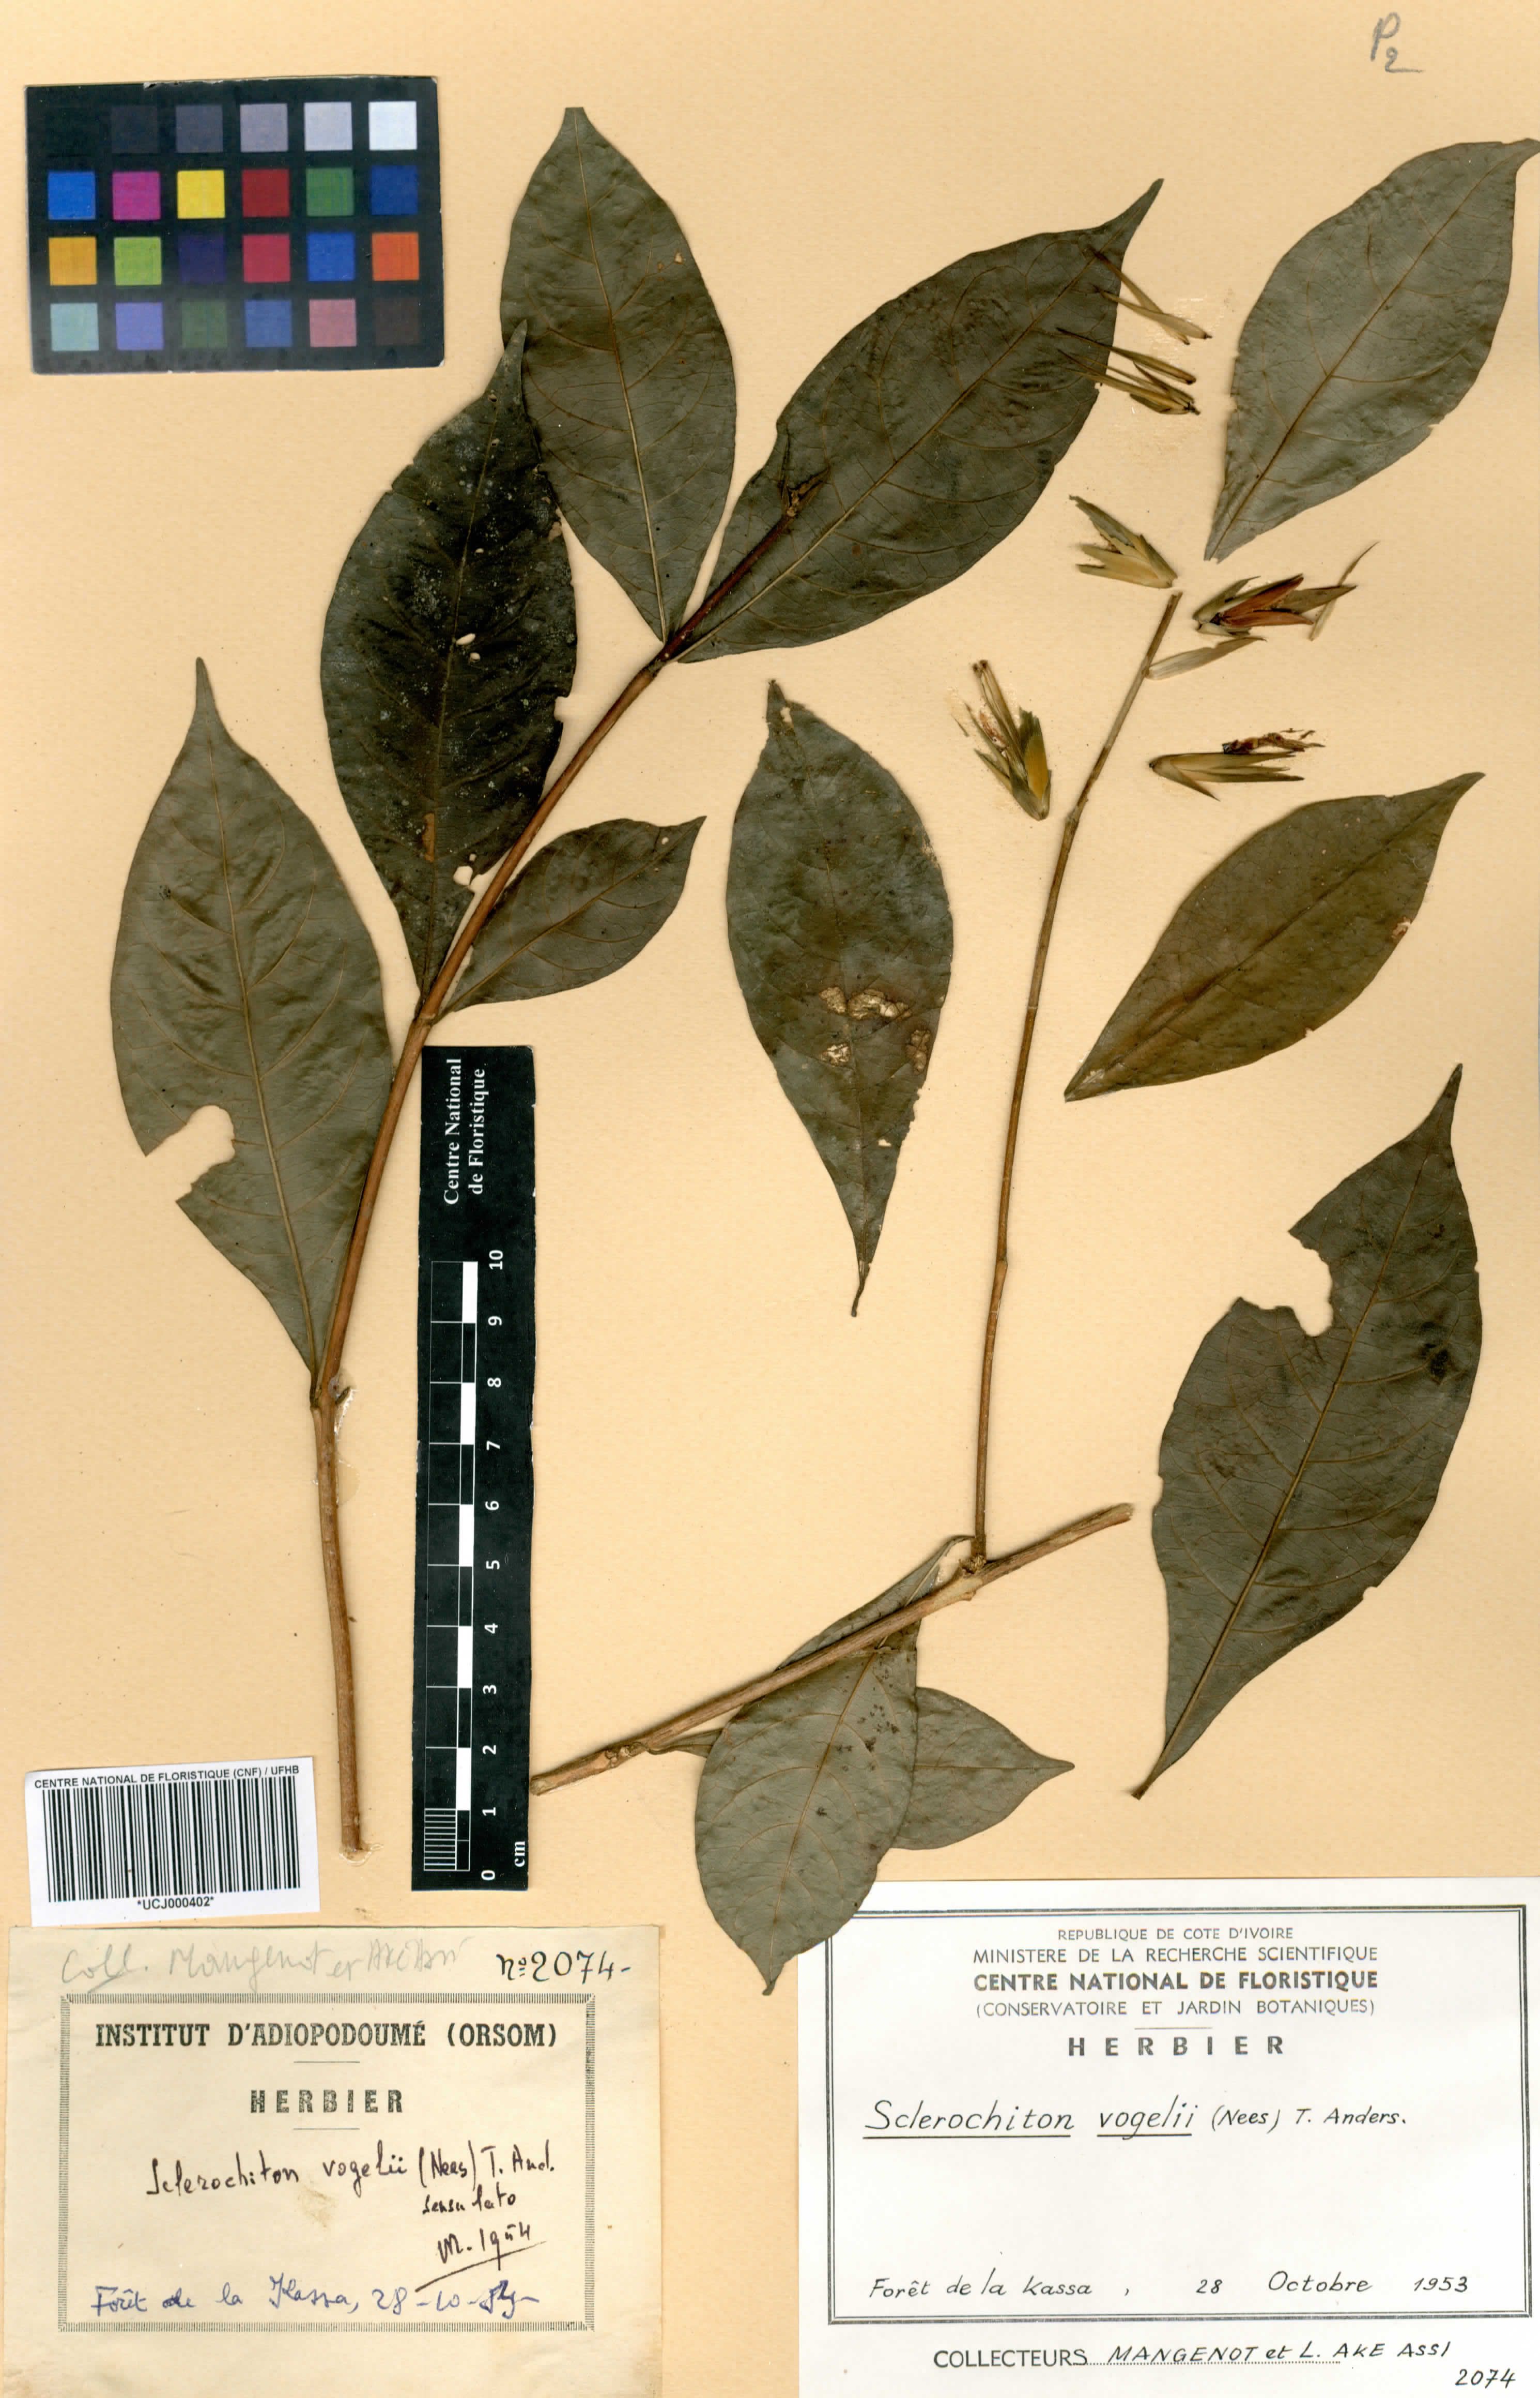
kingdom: Plantae
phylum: Tracheophyta
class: Magnoliopsida
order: Lamiales
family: Acanthaceae
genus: Sclerochiton
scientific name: Sclerochiton vogelii
